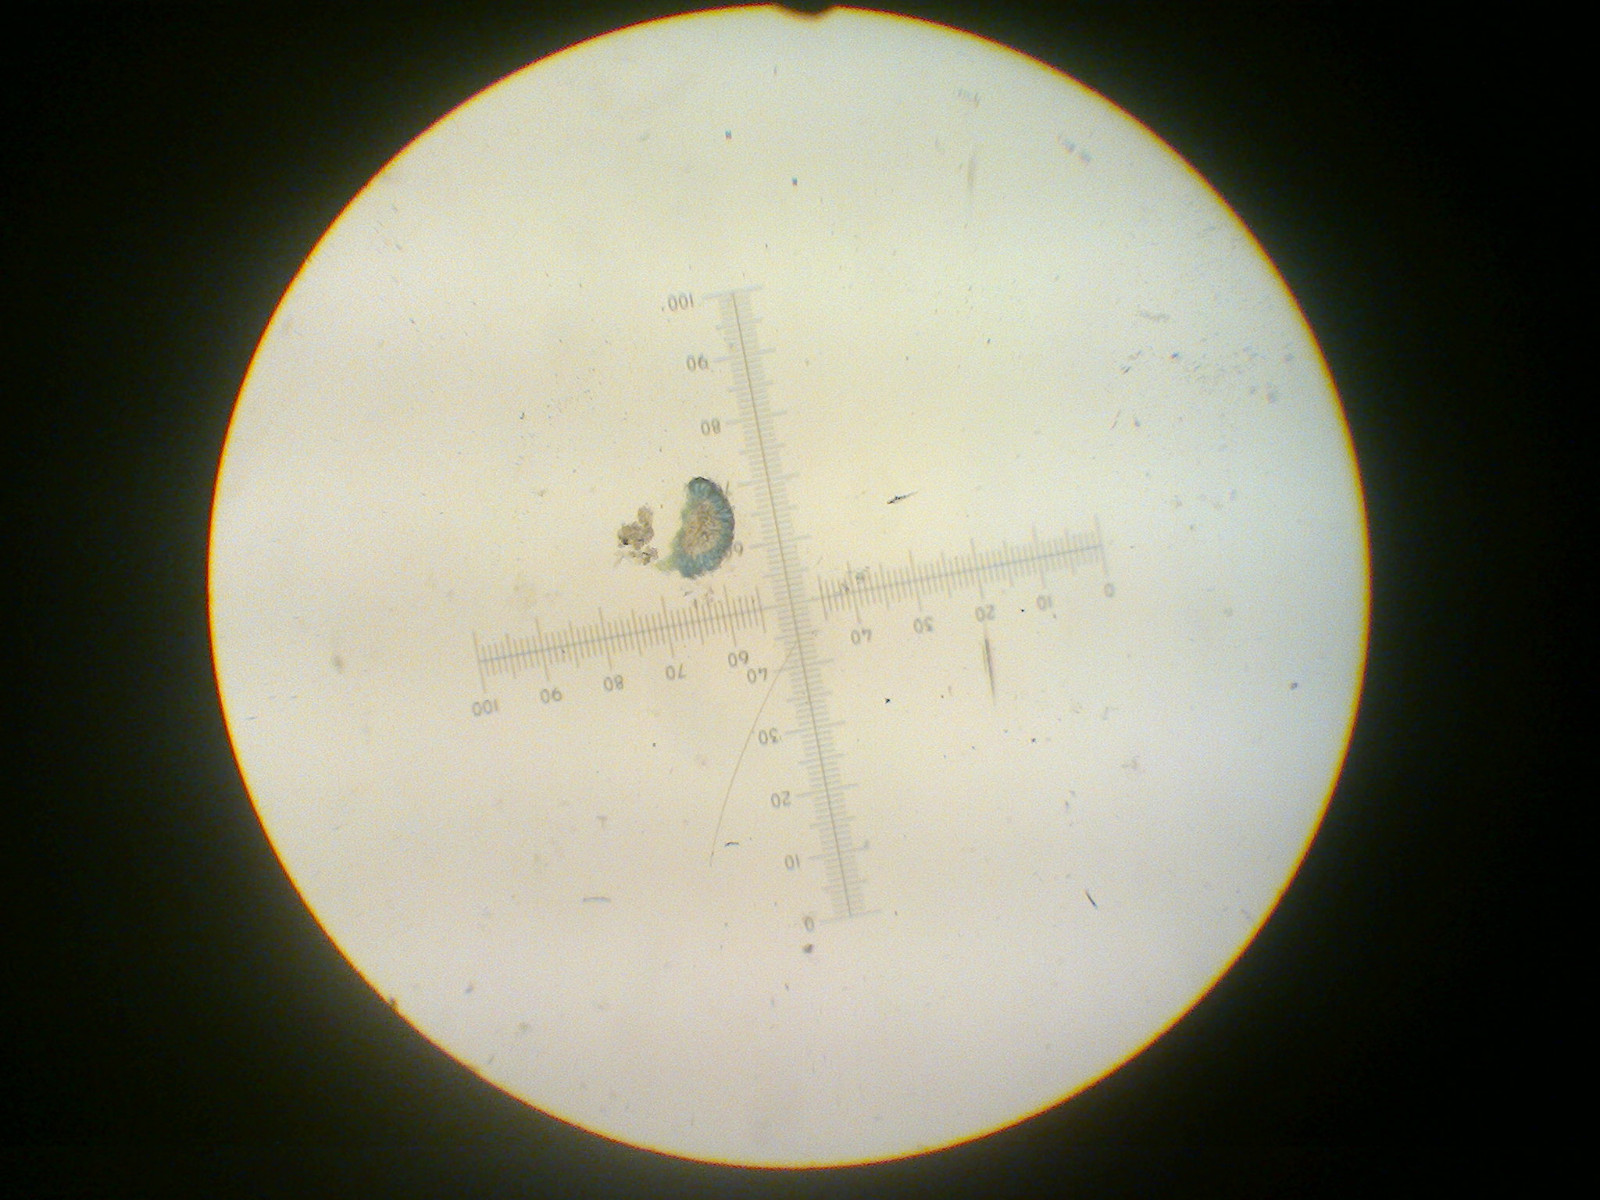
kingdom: Fungi
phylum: Ascomycota
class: Arthoniomycetes
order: Arthoniales
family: Arthoniaceae
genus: Bryostigma
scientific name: Bryostigma muscigenum
